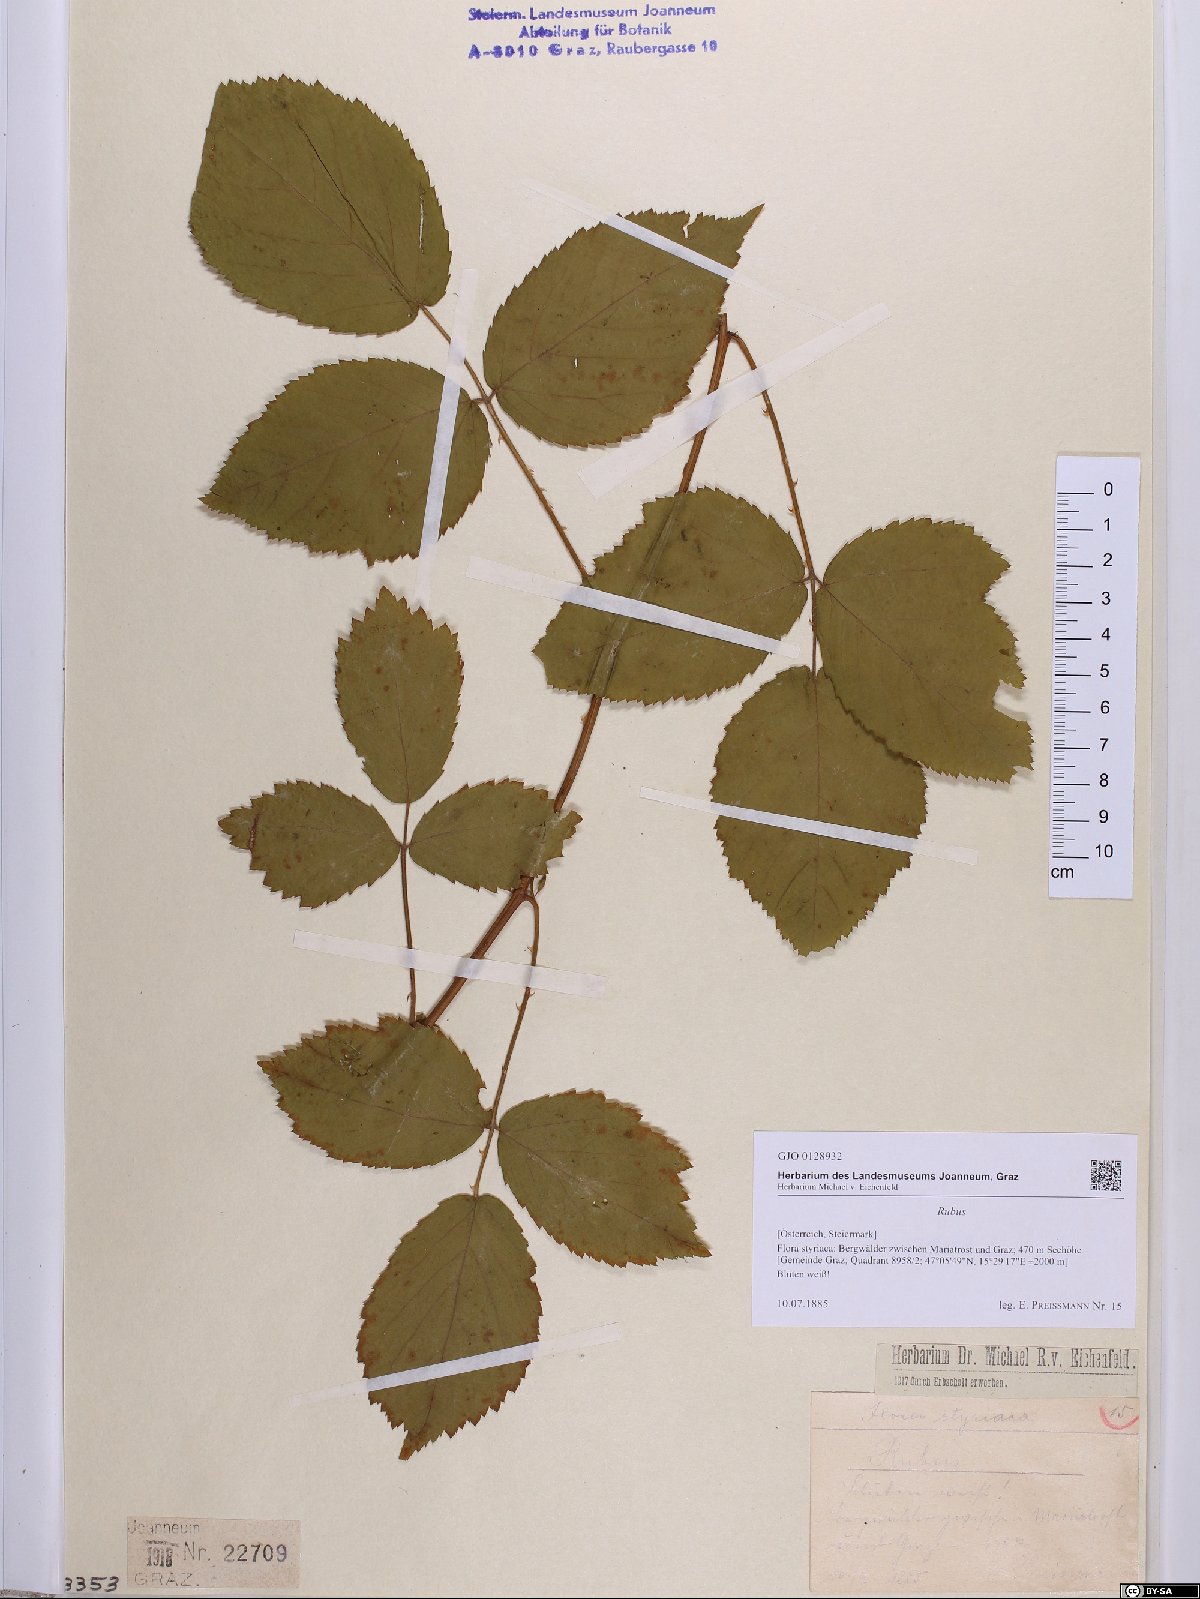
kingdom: Plantae
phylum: Tracheophyta
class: Magnoliopsida
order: Rosales
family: Rosaceae
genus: Rubus
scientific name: Rubus
